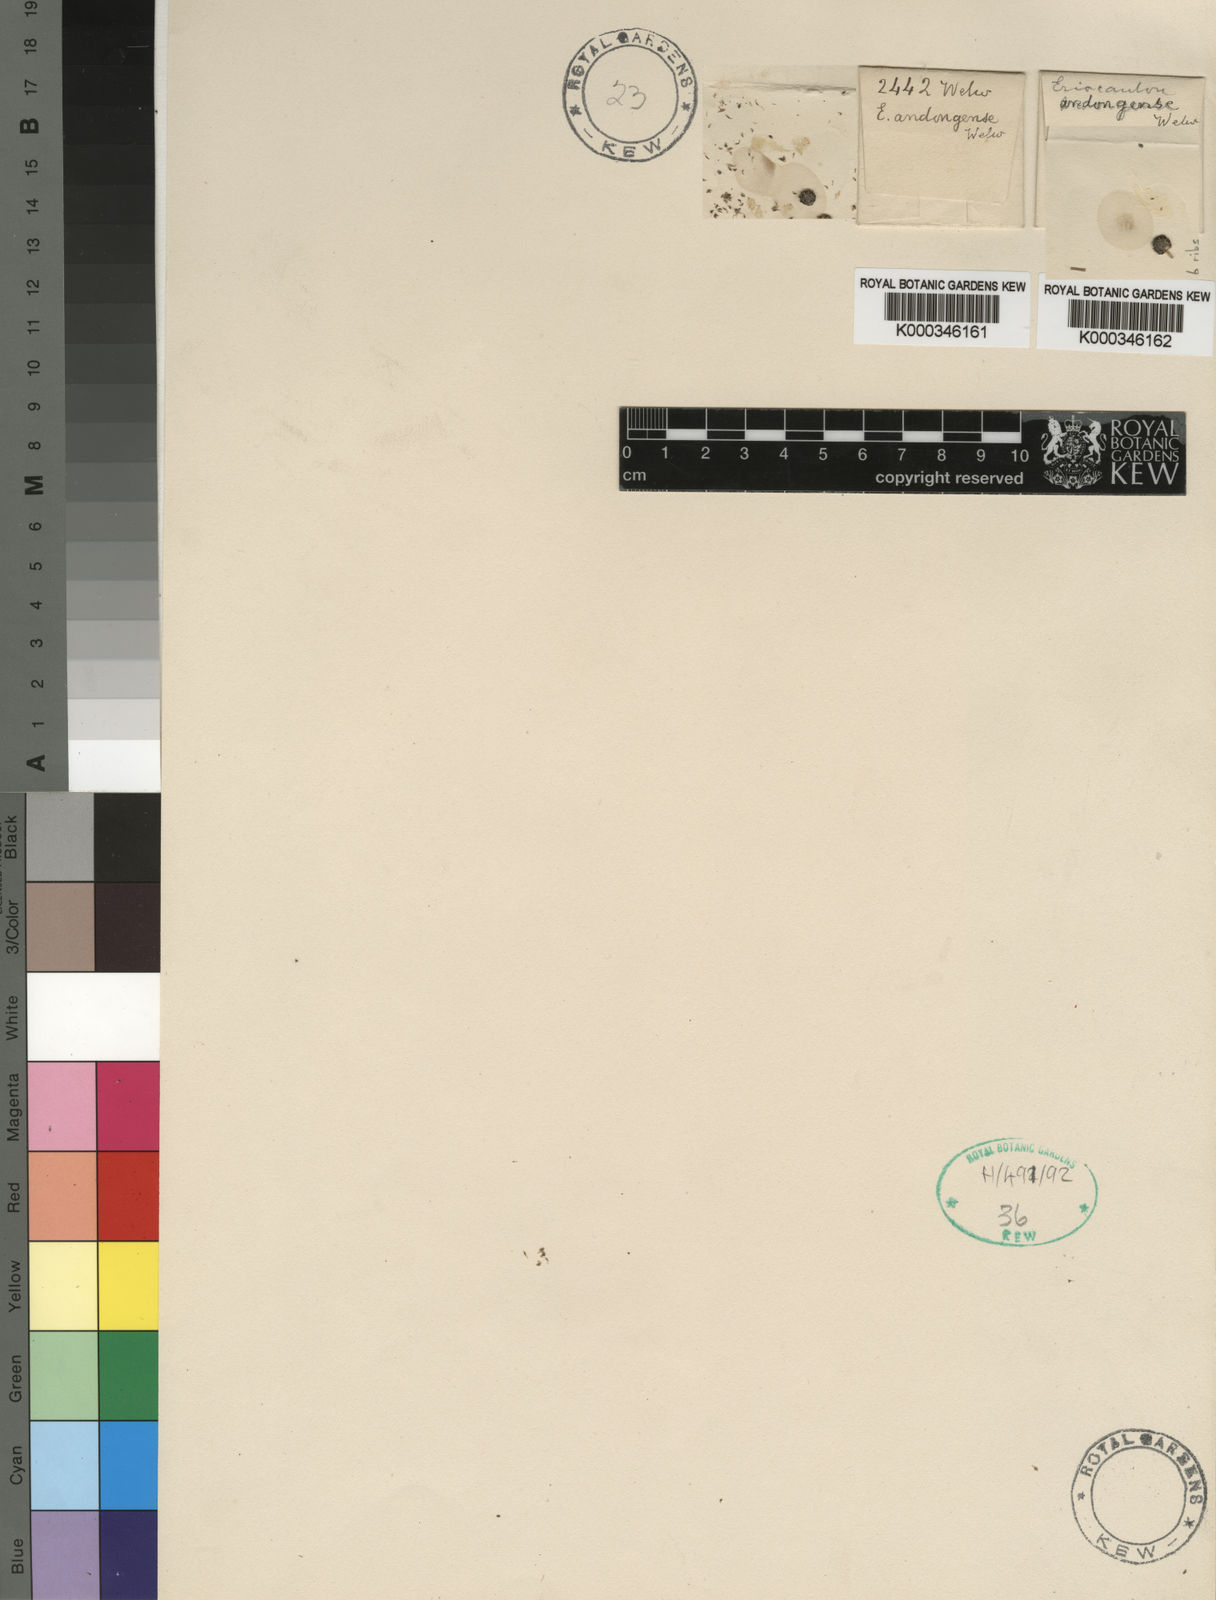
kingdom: Plantae
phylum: Tracheophyta
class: Liliopsida
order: Poales
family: Eriocaulaceae
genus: Eriocaulon
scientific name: Eriocaulon buchananii
